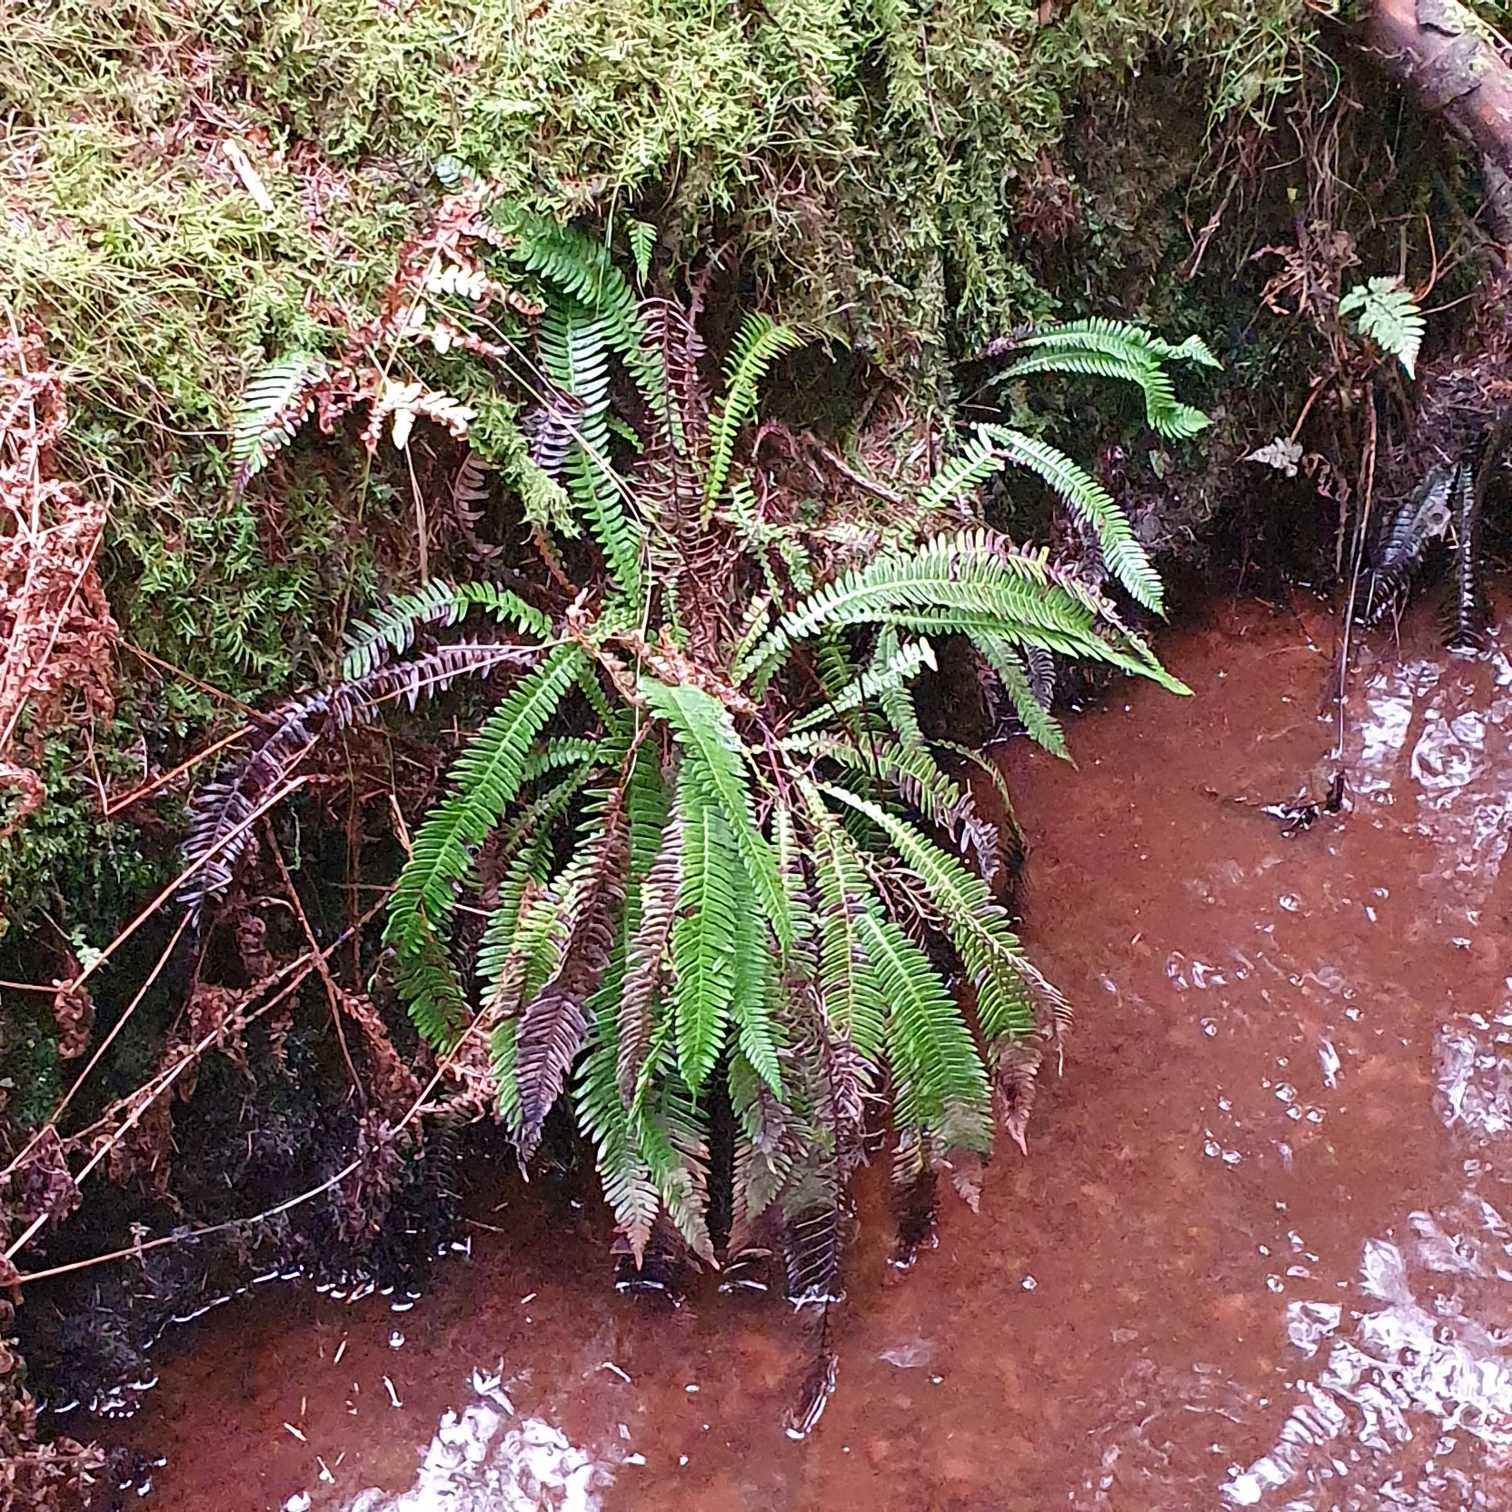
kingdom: Plantae
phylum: Tracheophyta
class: Polypodiopsida
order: Polypodiales
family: Blechnaceae
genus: Struthiopteris
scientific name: Struthiopteris spicant
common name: Kambregne
